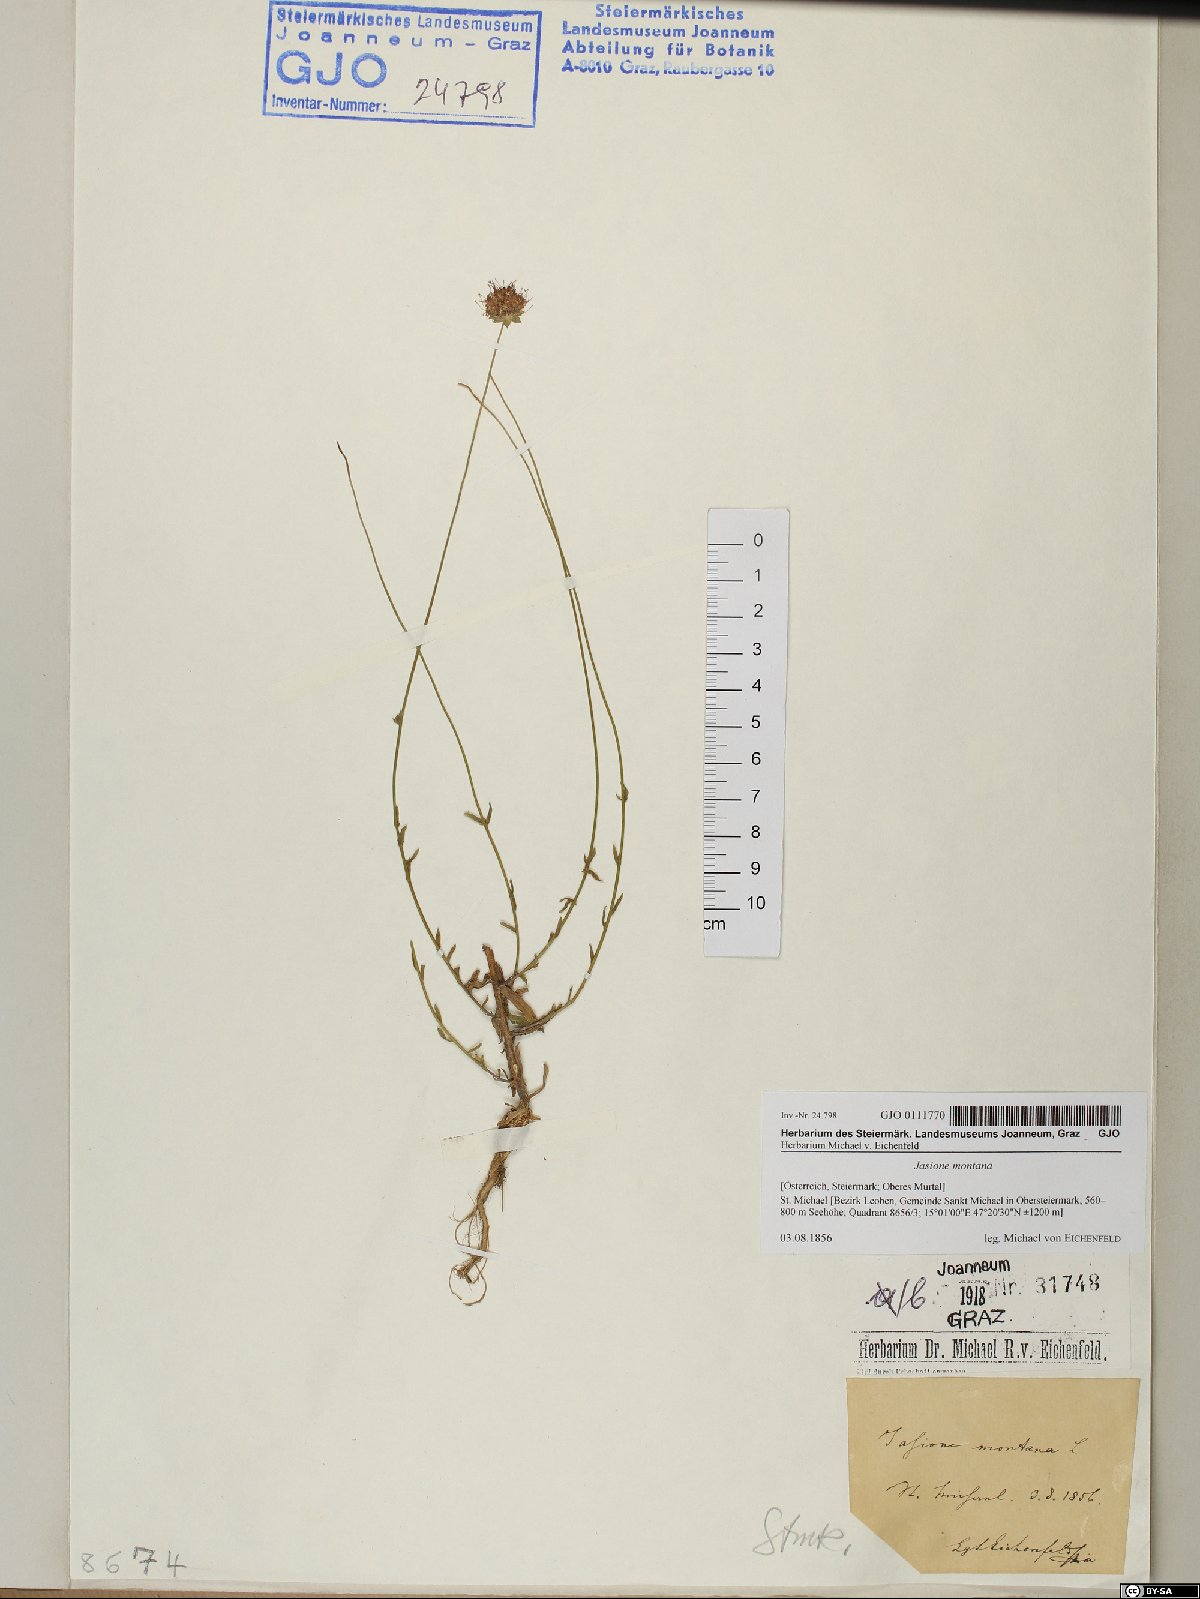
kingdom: Plantae
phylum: Tracheophyta
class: Magnoliopsida
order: Asterales
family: Campanulaceae
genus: Jasione
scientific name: Jasione montana
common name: Sheep's-bit
